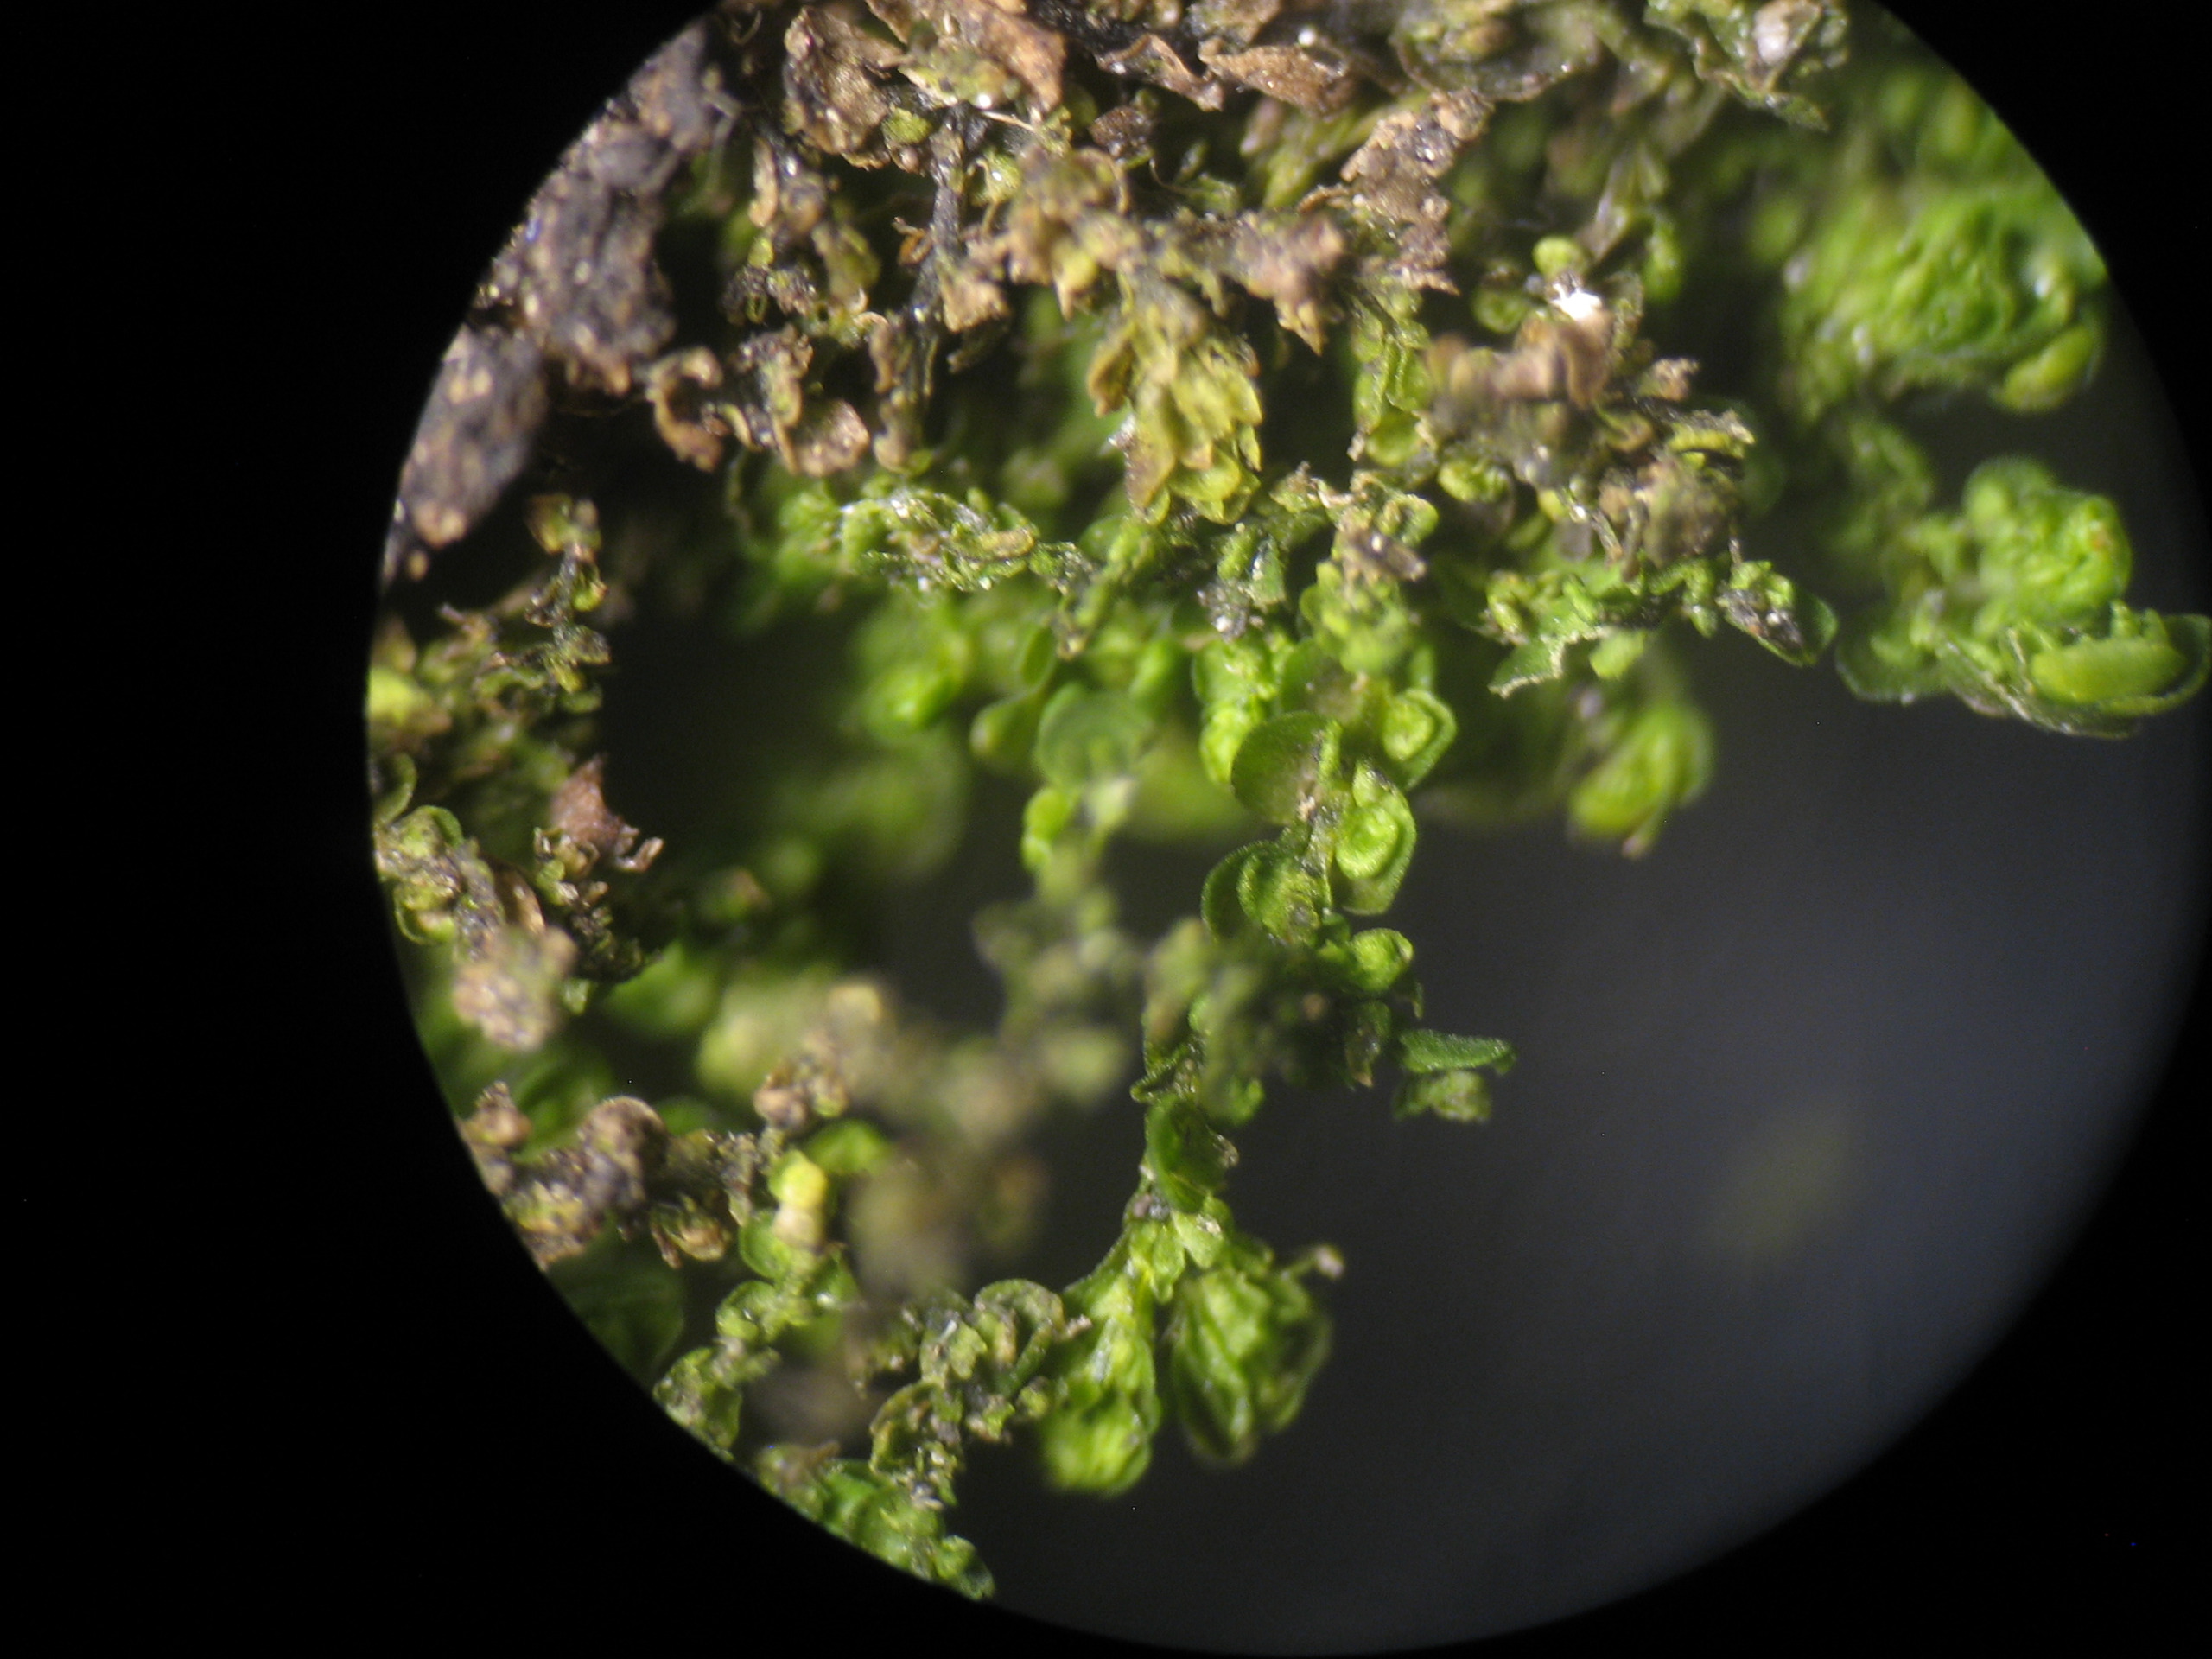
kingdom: Plantae
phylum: Marchantiophyta
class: Jungermanniopsida
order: Porellales
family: Frullaniaceae
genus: Frullania
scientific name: Frullania dilatata
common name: Mat bronzemos
